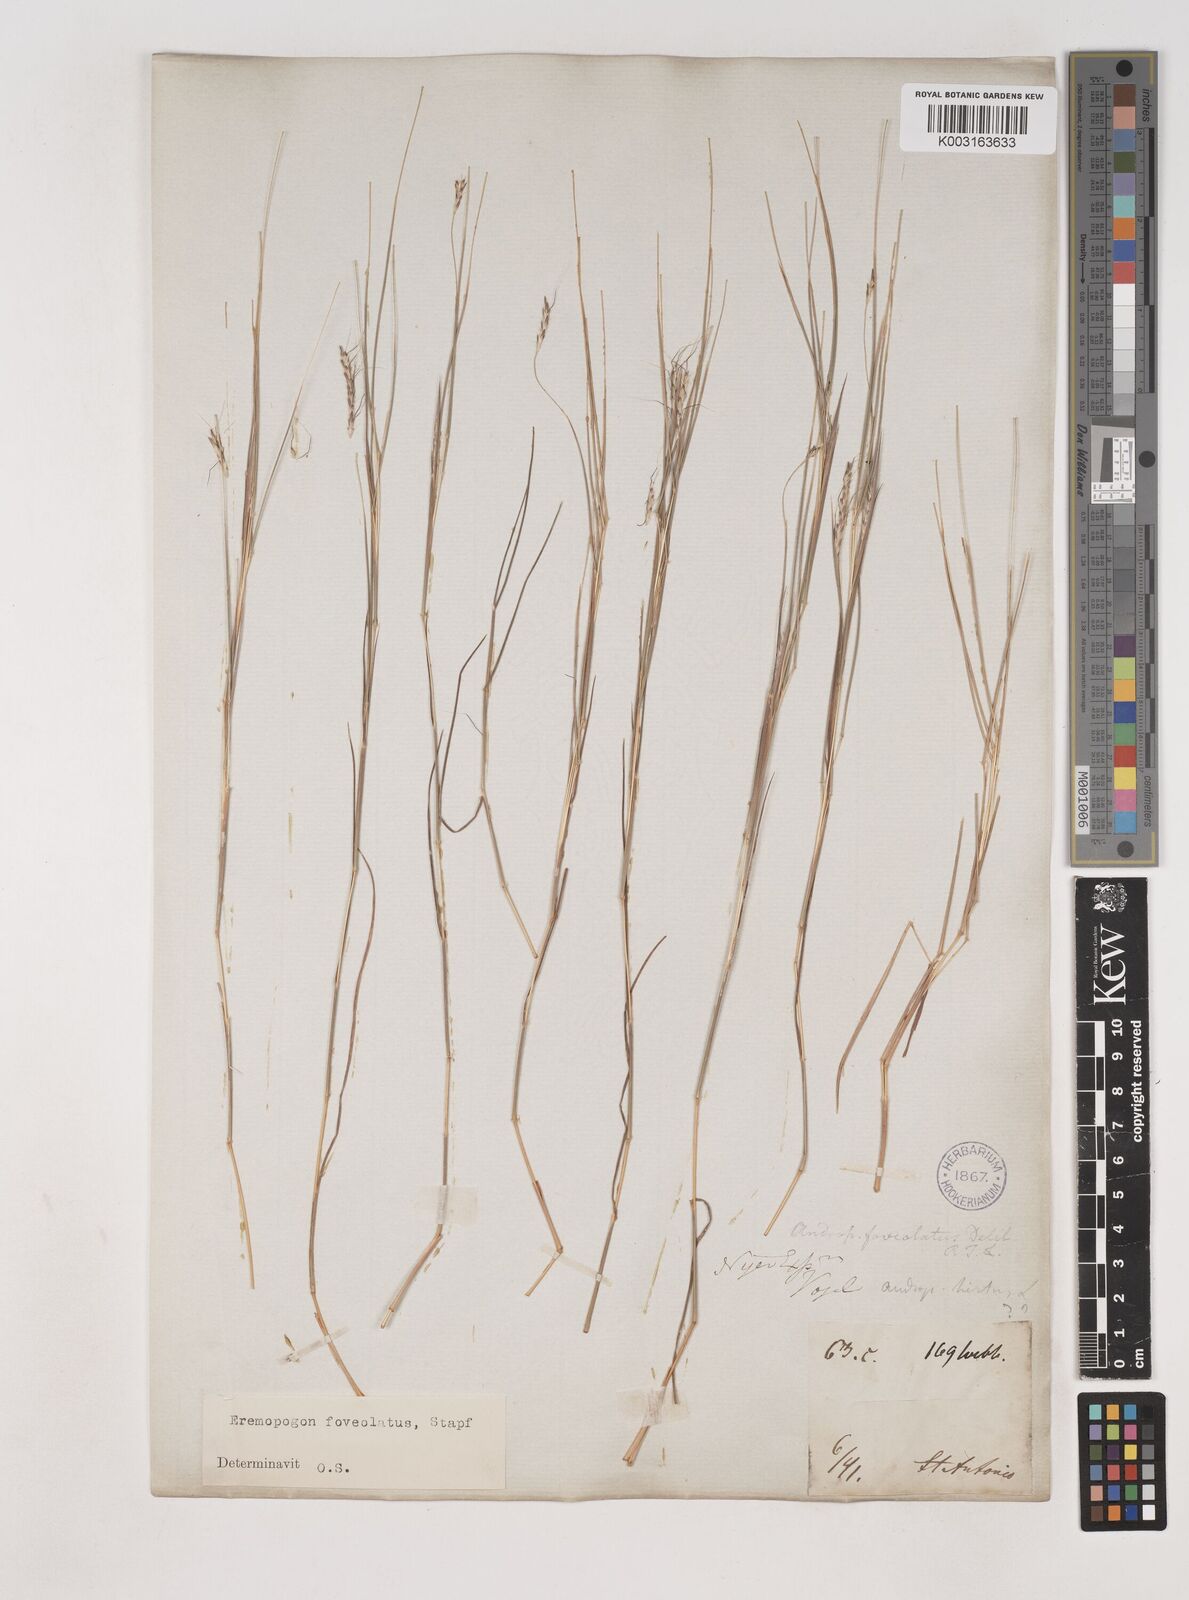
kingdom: Plantae
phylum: Tracheophyta
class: Liliopsida
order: Poales
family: Poaceae
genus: Dichanthium
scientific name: Dichanthium foveolatum
